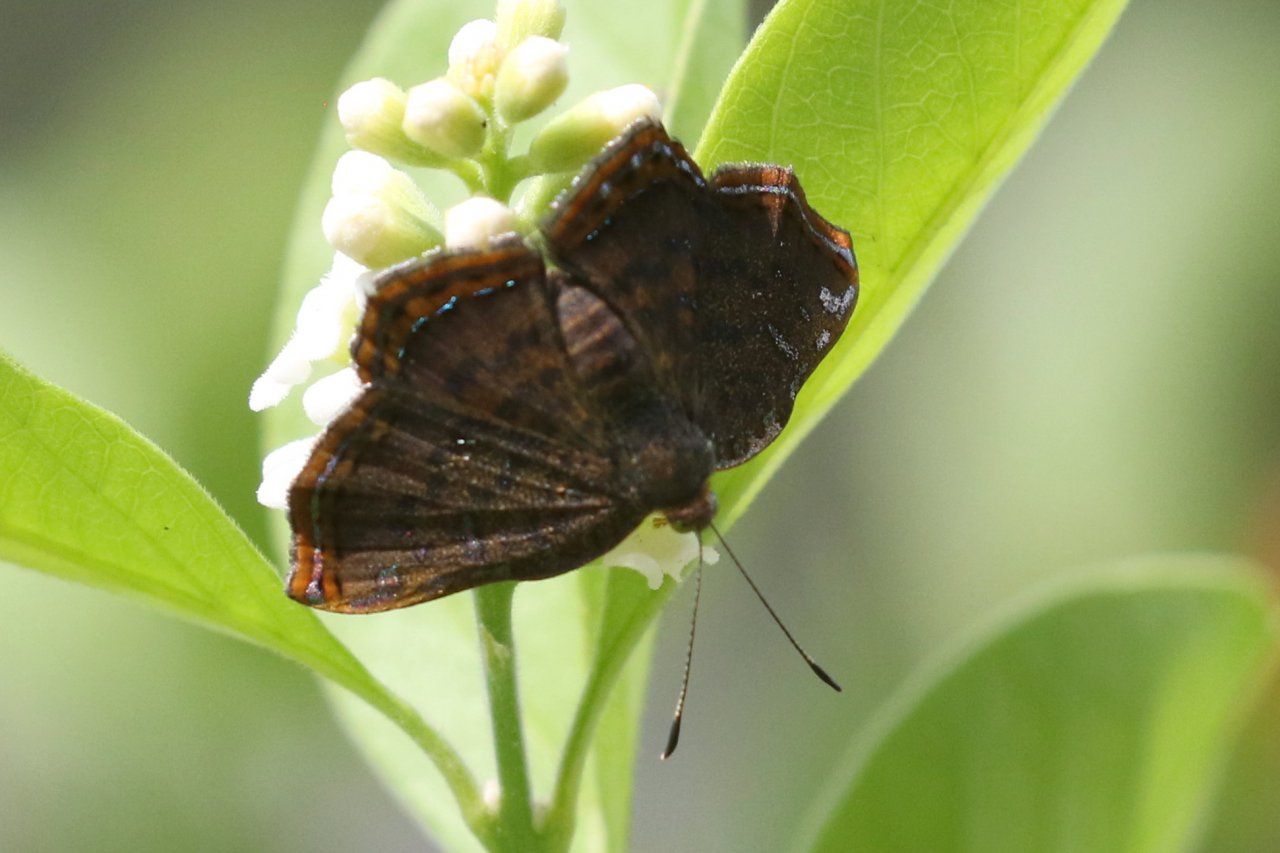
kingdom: Animalia
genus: Caria
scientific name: Caria ino
